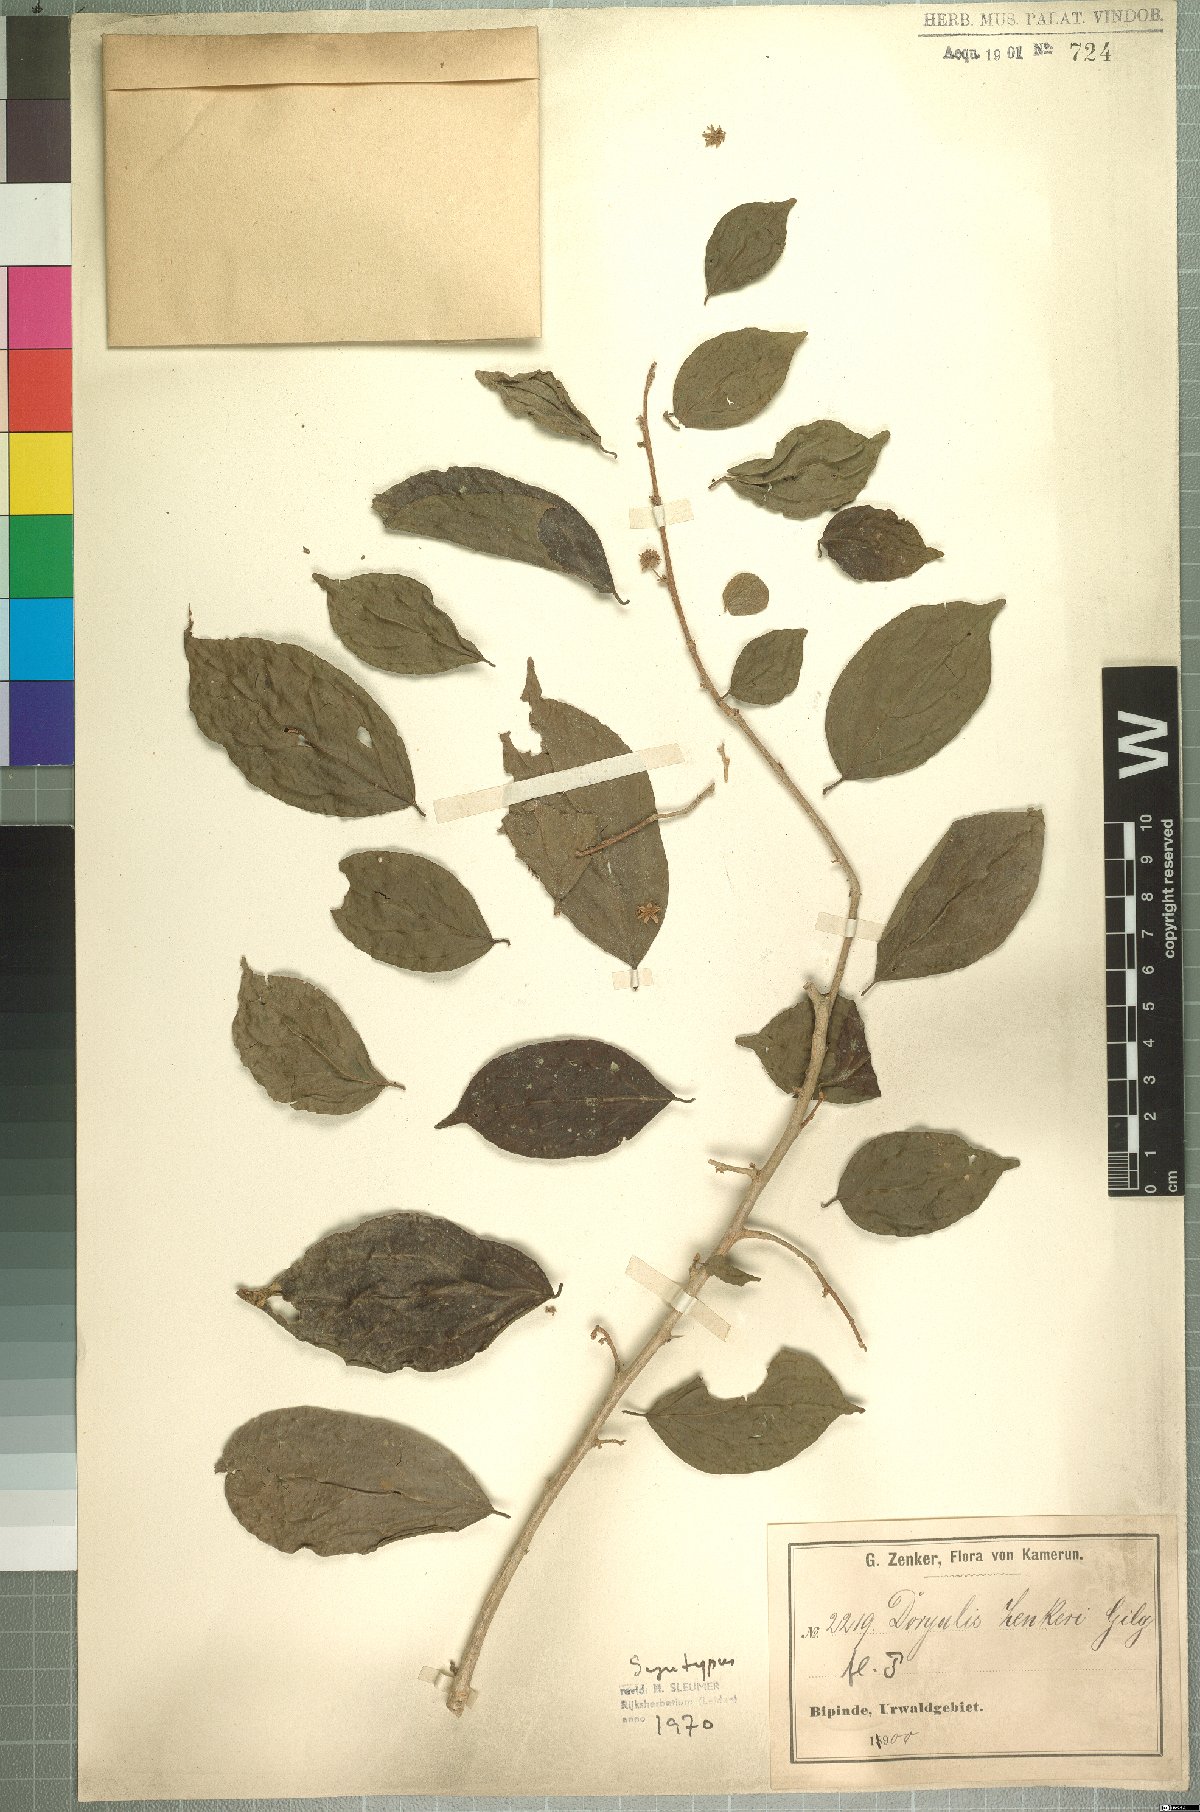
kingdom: Plantae
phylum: Tracheophyta
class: Magnoliopsida
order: Malpighiales
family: Salicaceae
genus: Dovyalis
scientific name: Dovyalis zenkeri
